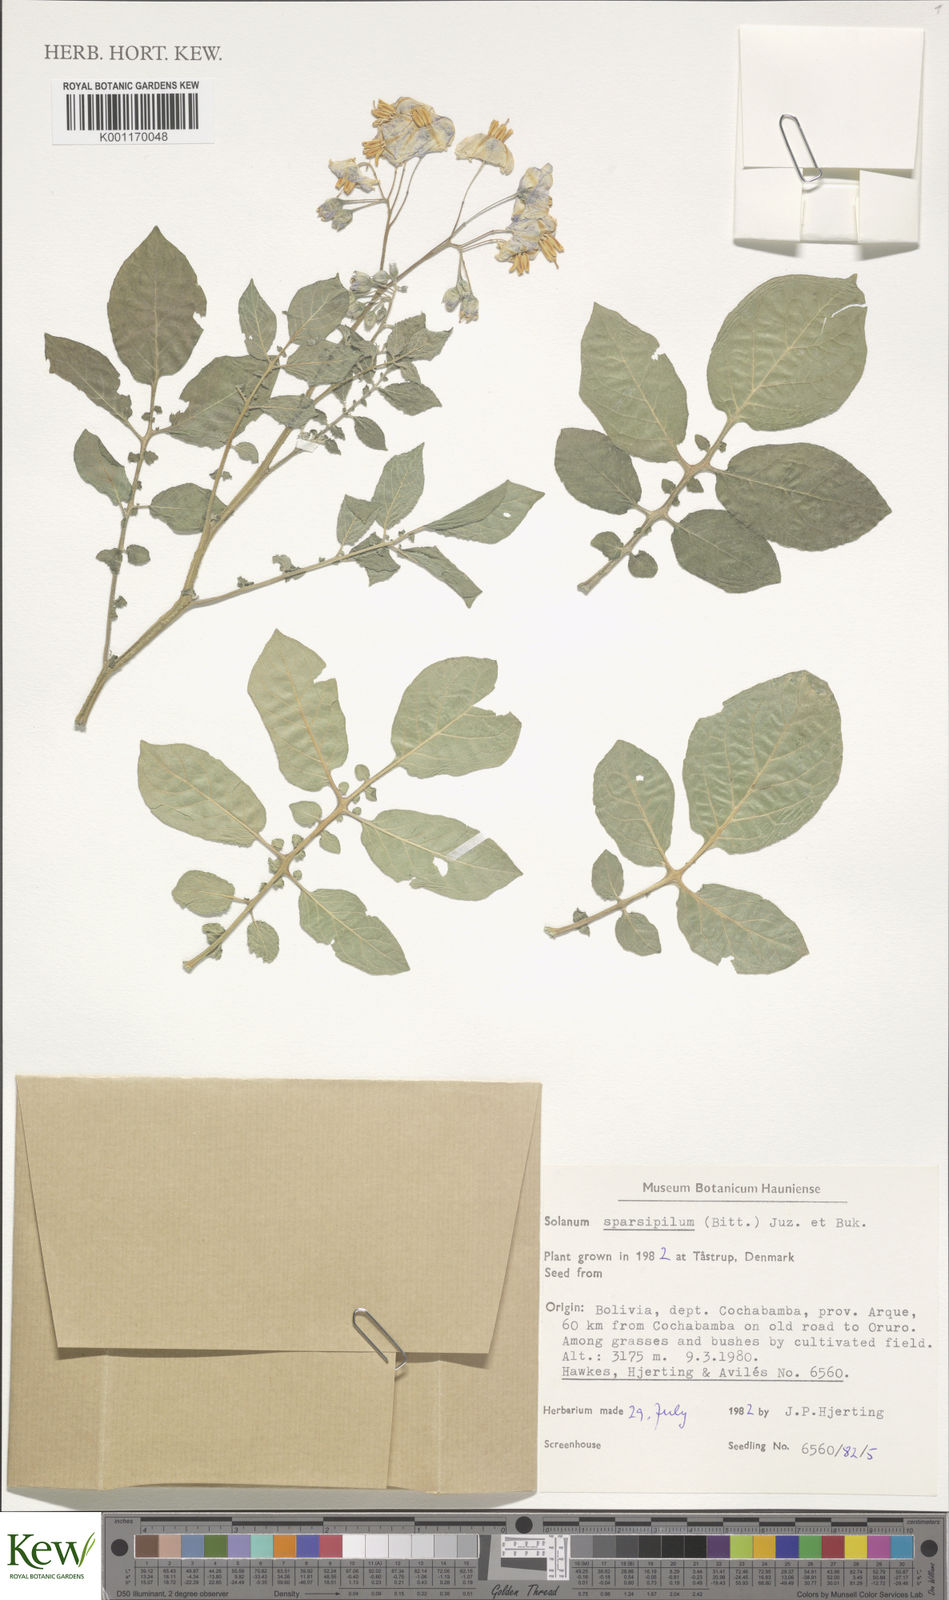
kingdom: Plantae
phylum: Tracheophyta
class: Magnoliopsida
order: Solanales
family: Solanaceae
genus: Solanum
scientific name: Solanum brevicaule
